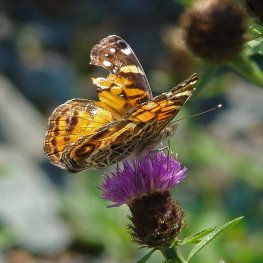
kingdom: Animalia
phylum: Arthropoda
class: Insecta
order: Lepidoptera
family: Nymphalidae
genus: Vanessa
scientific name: Vanessa virginiensis
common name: American Lady
